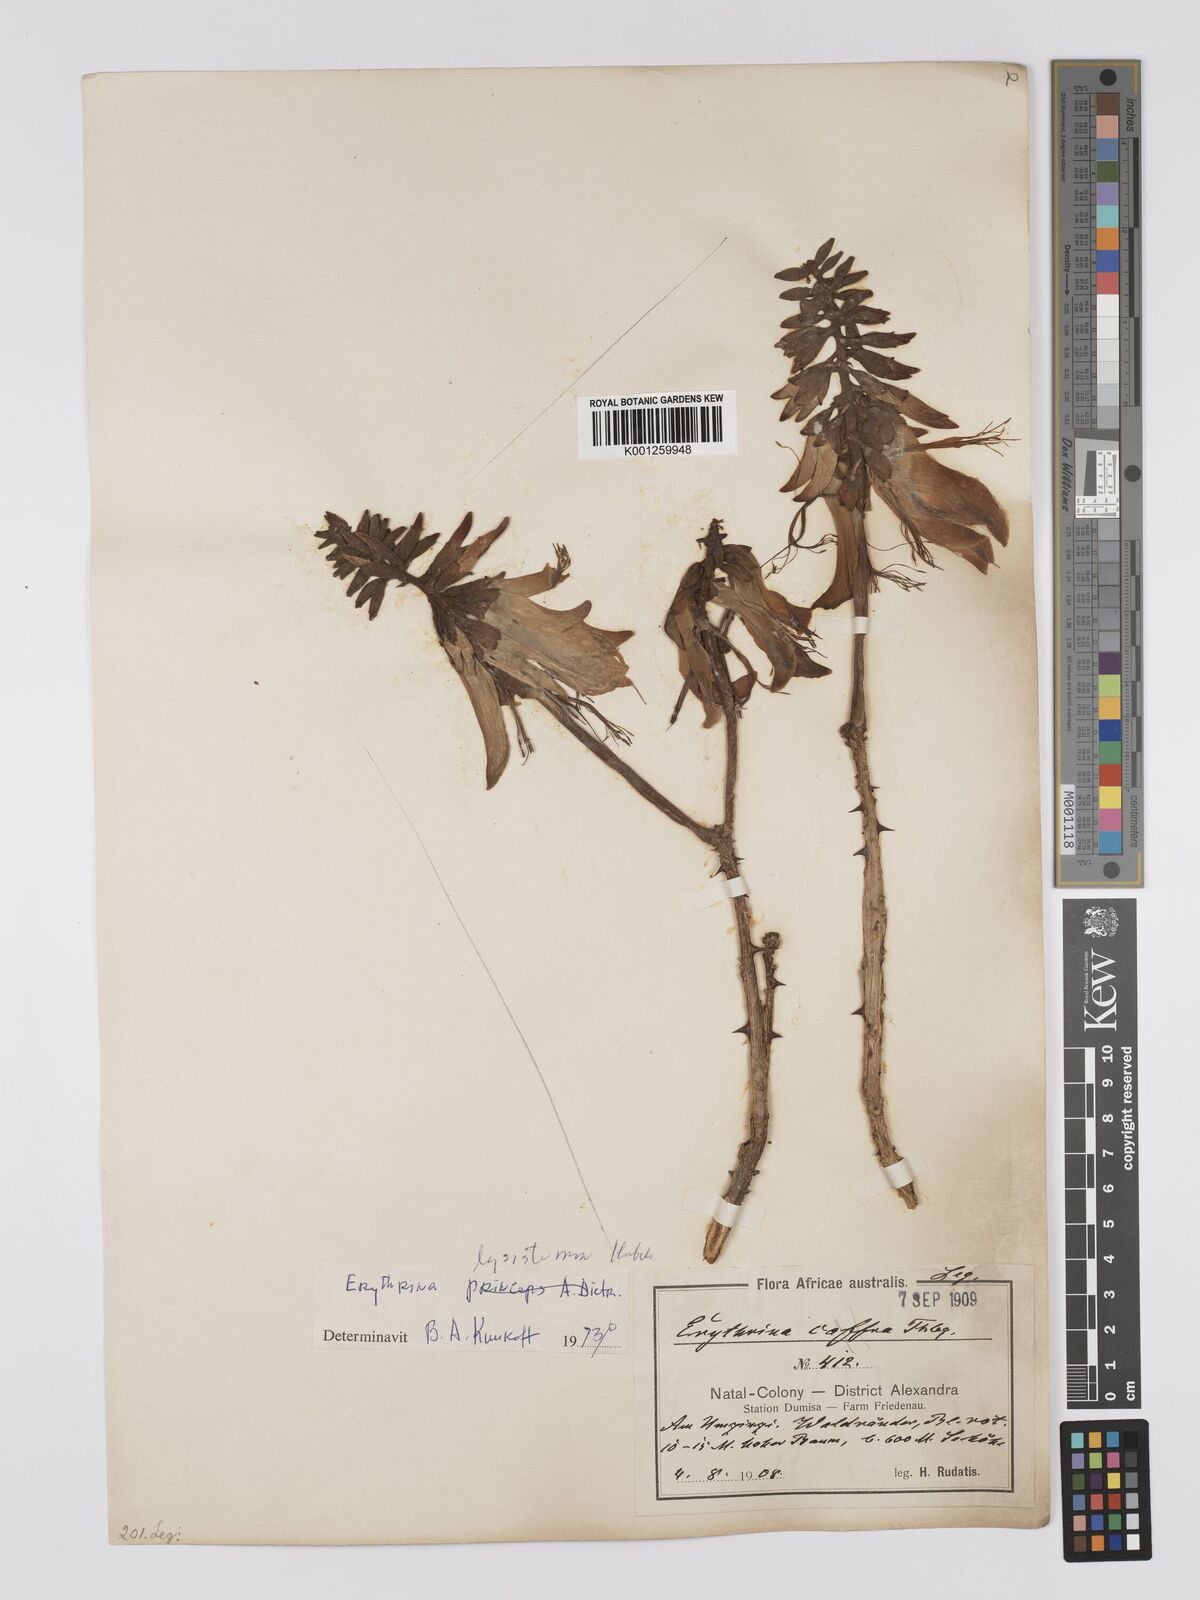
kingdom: Plantae
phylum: Tracheophyta
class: Magnoliopsida
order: Fabales
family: Fabaceae
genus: Erythrina
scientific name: Erythrina lysistemon
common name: Common coral tree
